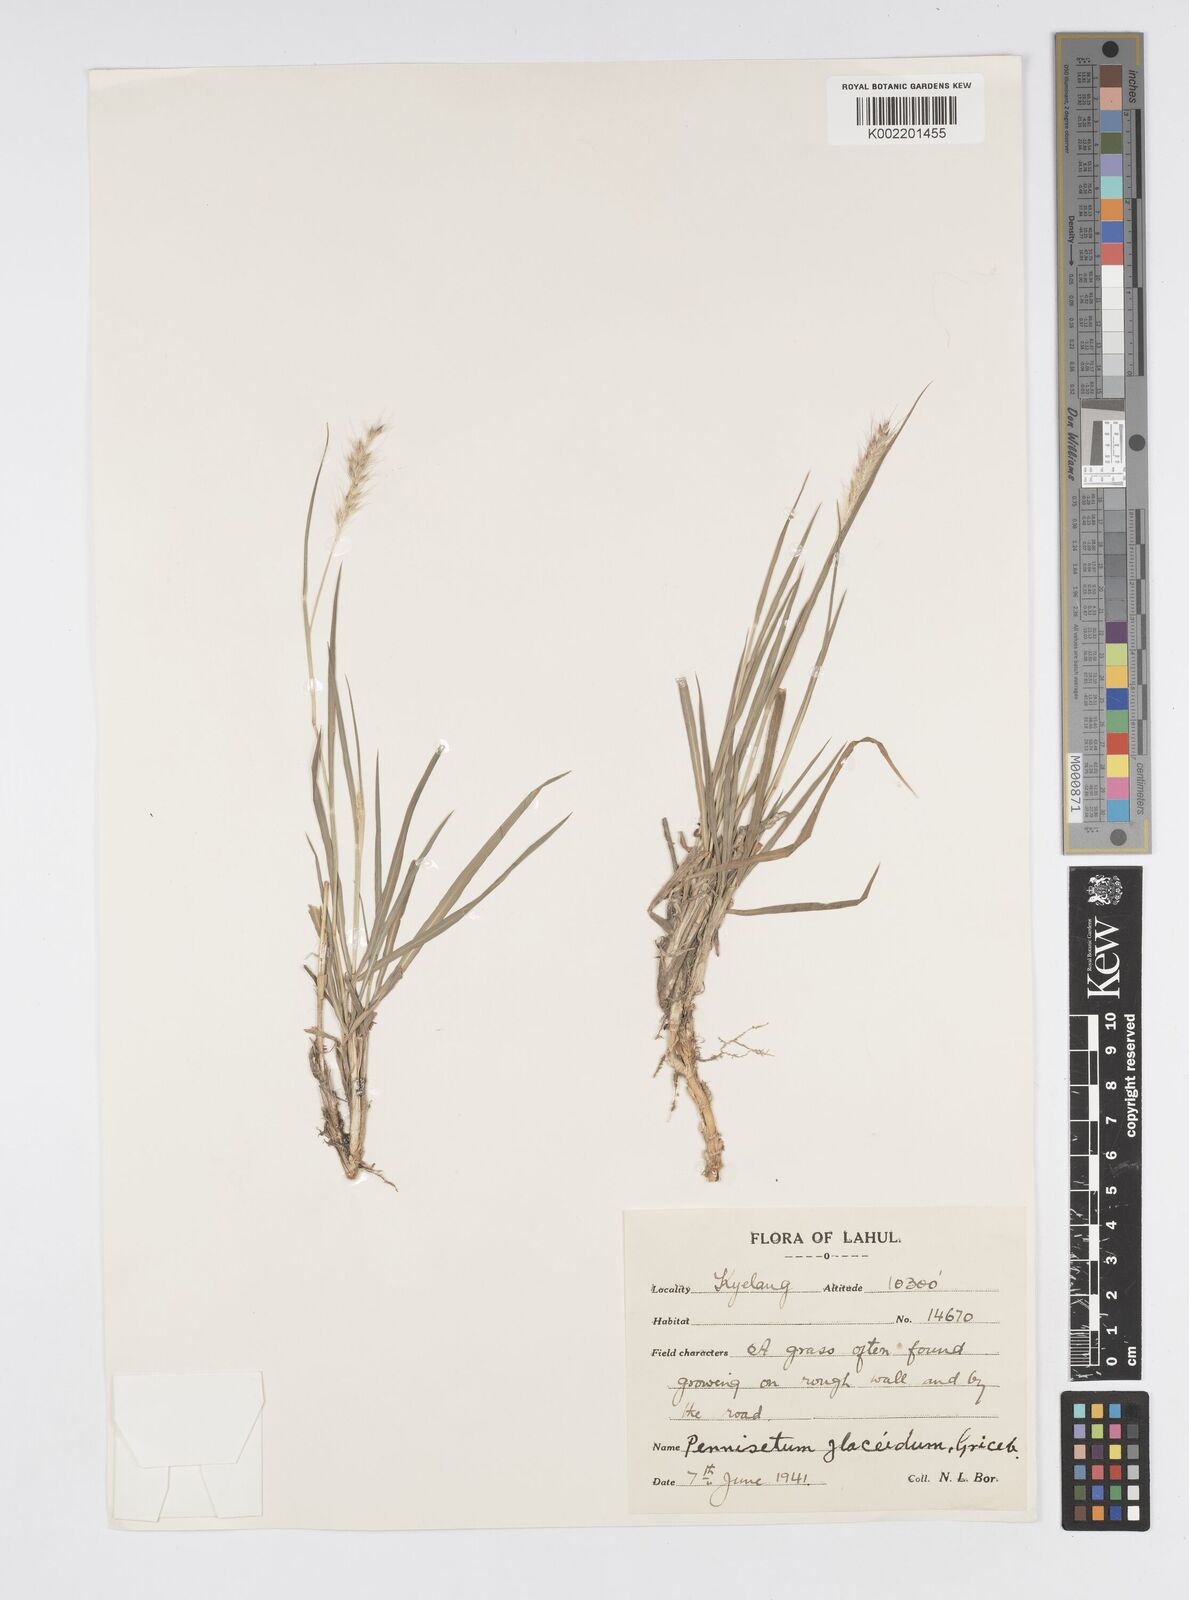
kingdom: Plantae
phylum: Tracheophyta
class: Liliopsida
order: Poales
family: Poaceae
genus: Cenchrus
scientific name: Cenchrus flaccidus
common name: Flaccid grass
